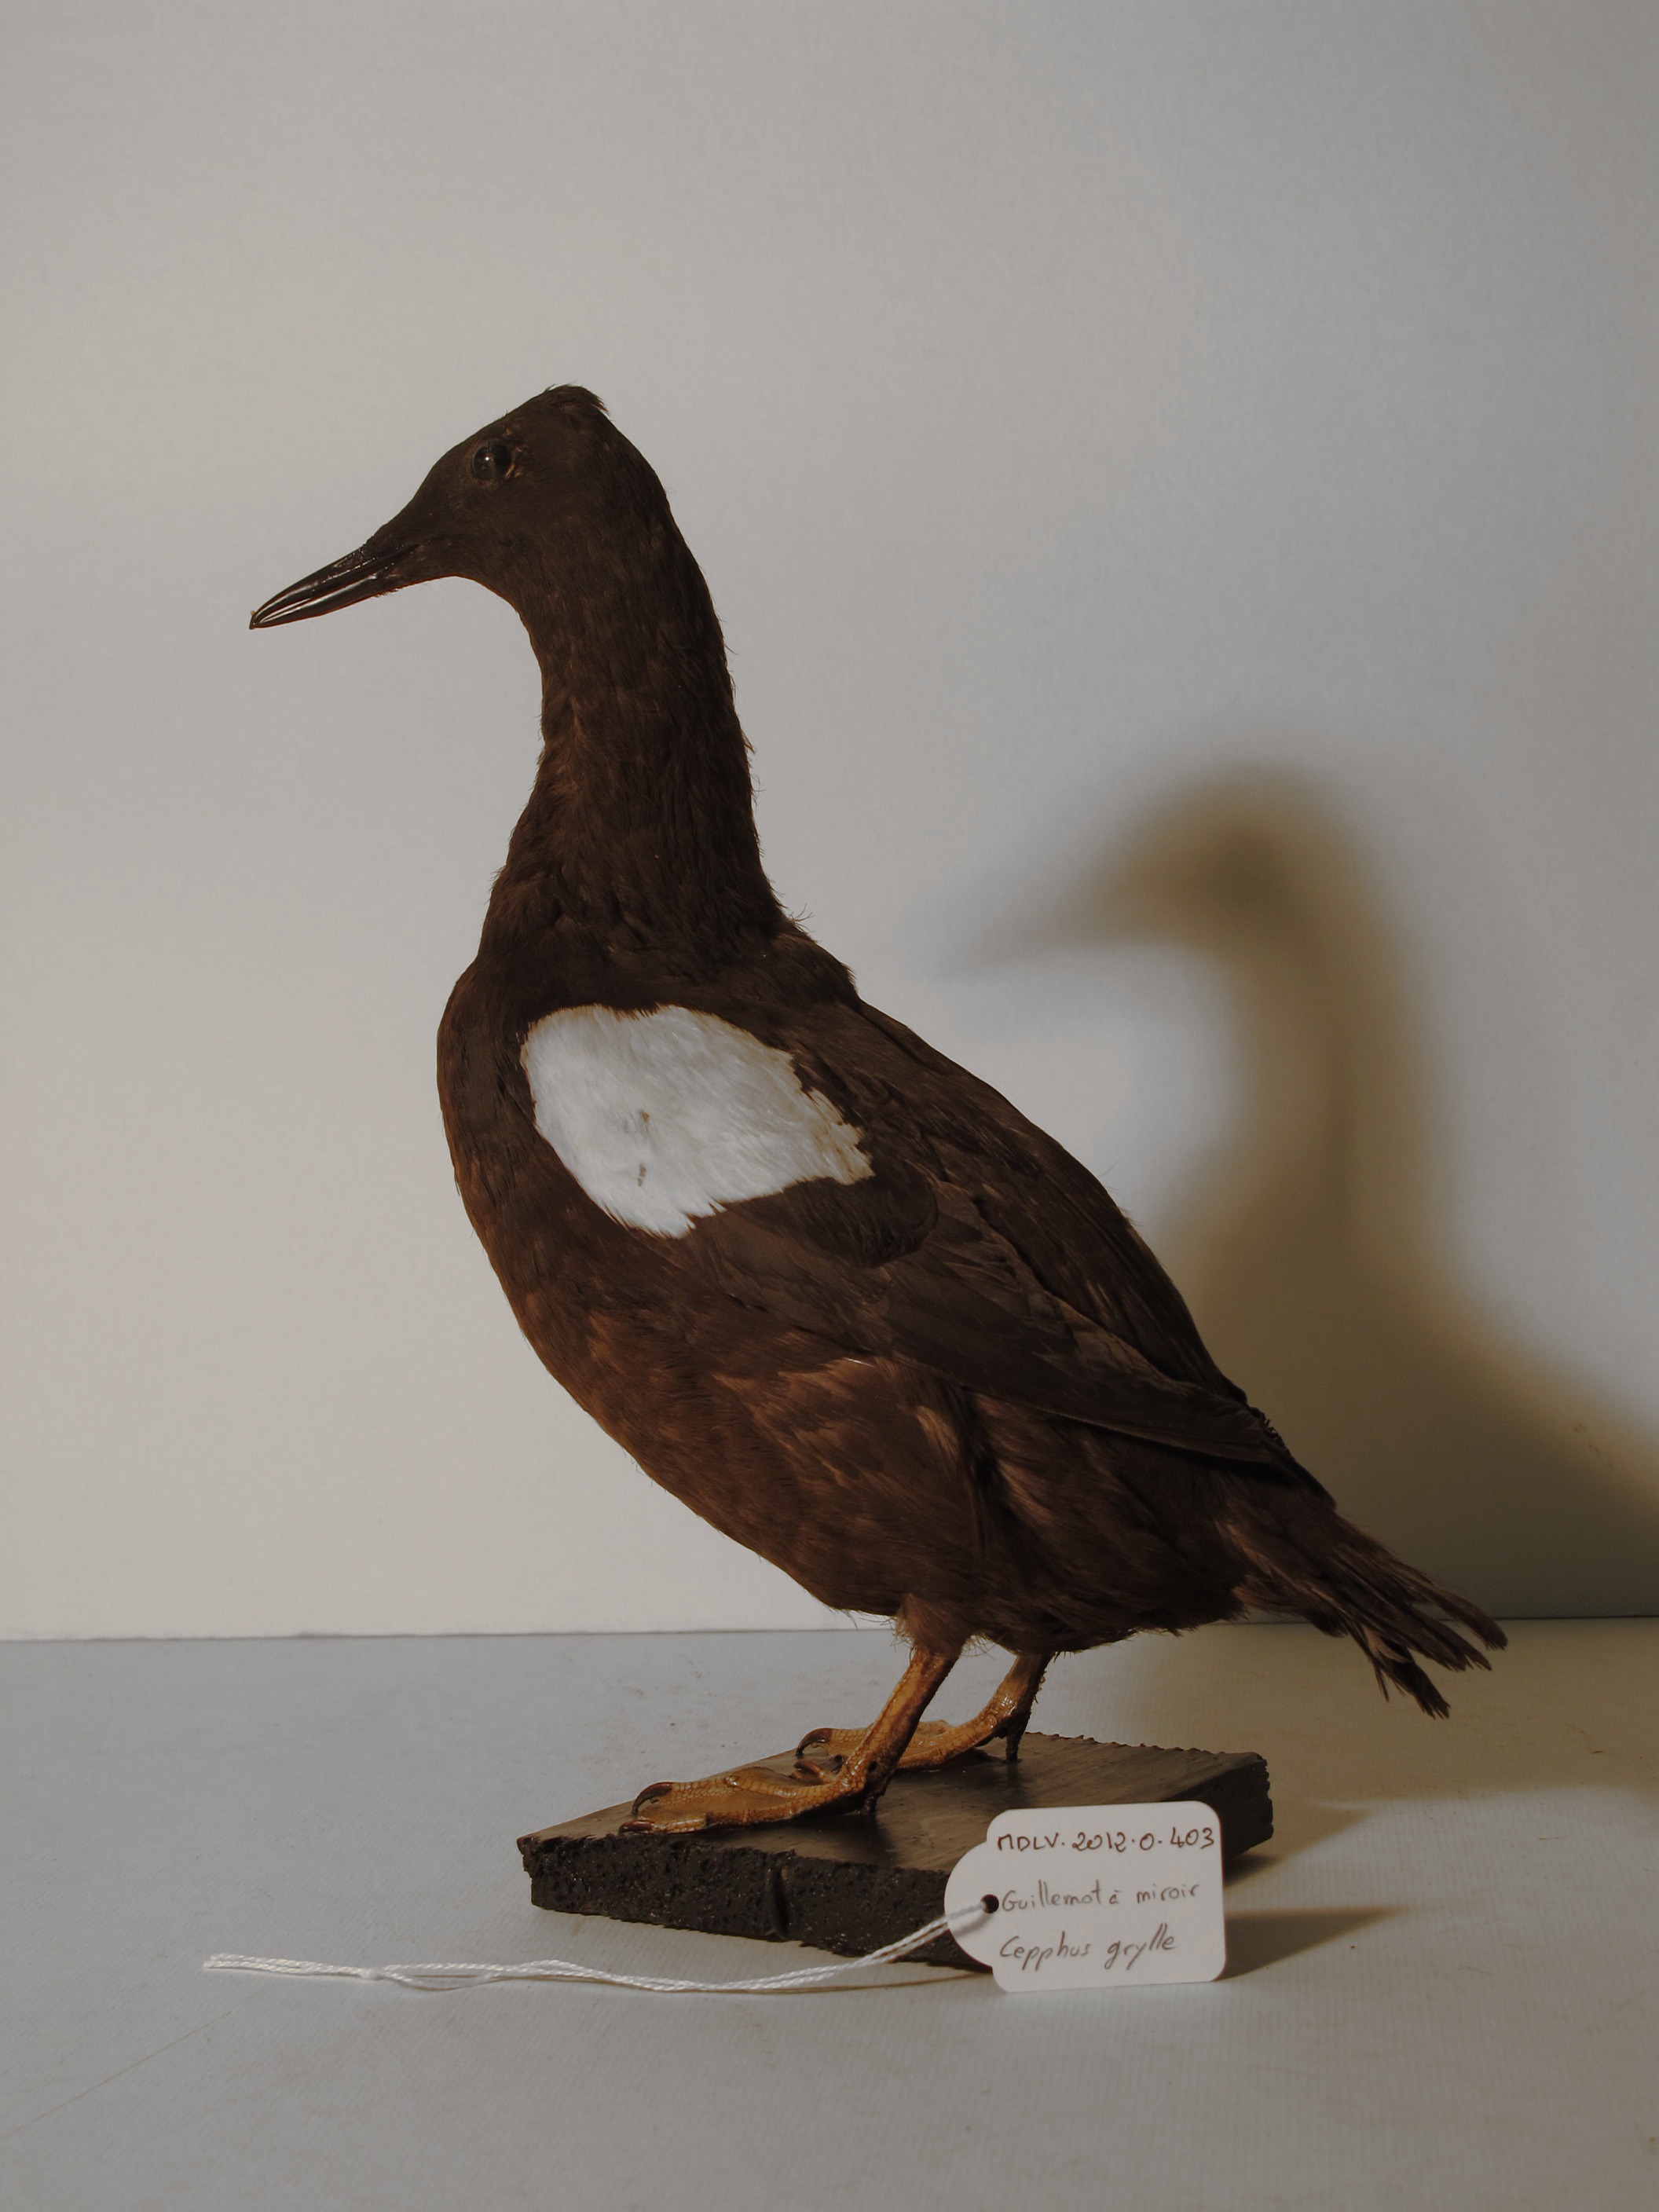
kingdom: Animalia
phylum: Chordata
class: Aves
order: Charadriiformes
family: Alcidae
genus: Cepphus
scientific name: Cepphus grylle
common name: Black Guillemot
